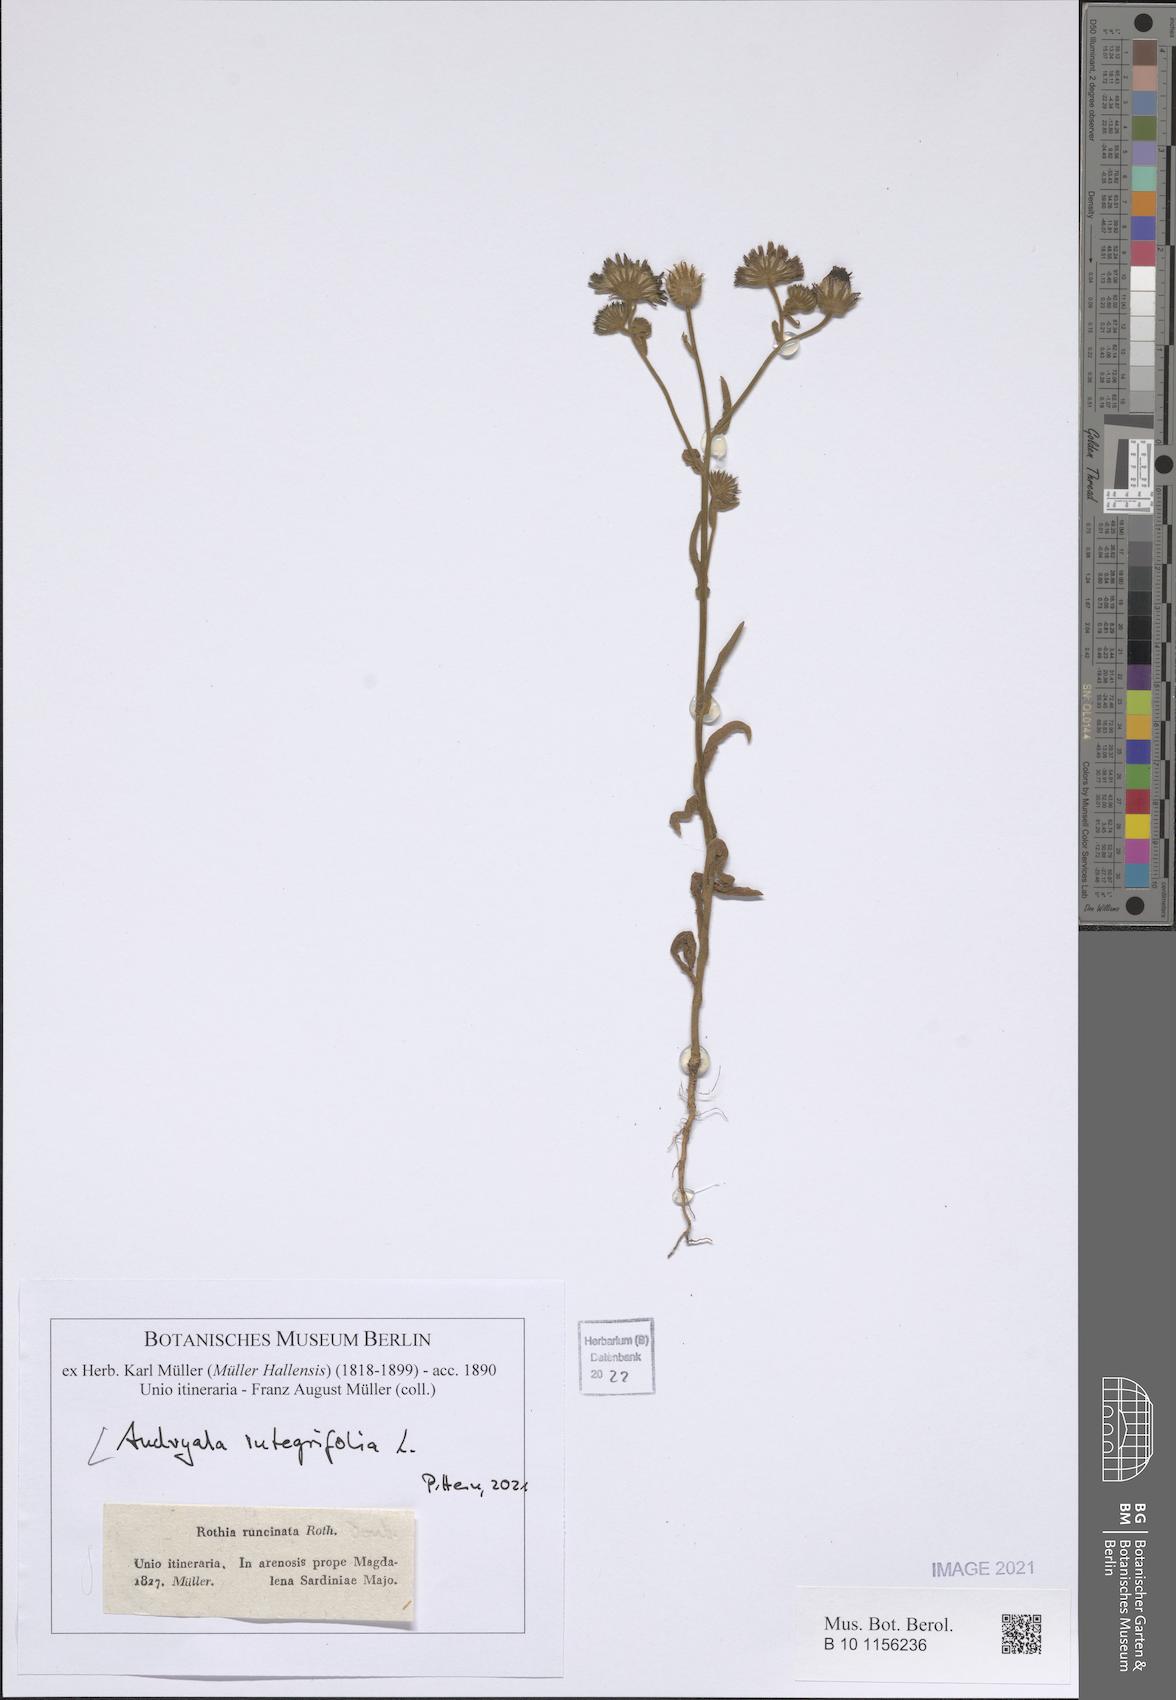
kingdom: Plantae
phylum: Tracheophyta
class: Magnoliopsida
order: Asterales
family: Asteraceae
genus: Andryala
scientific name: Andryala integrifolia
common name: Common andryala
